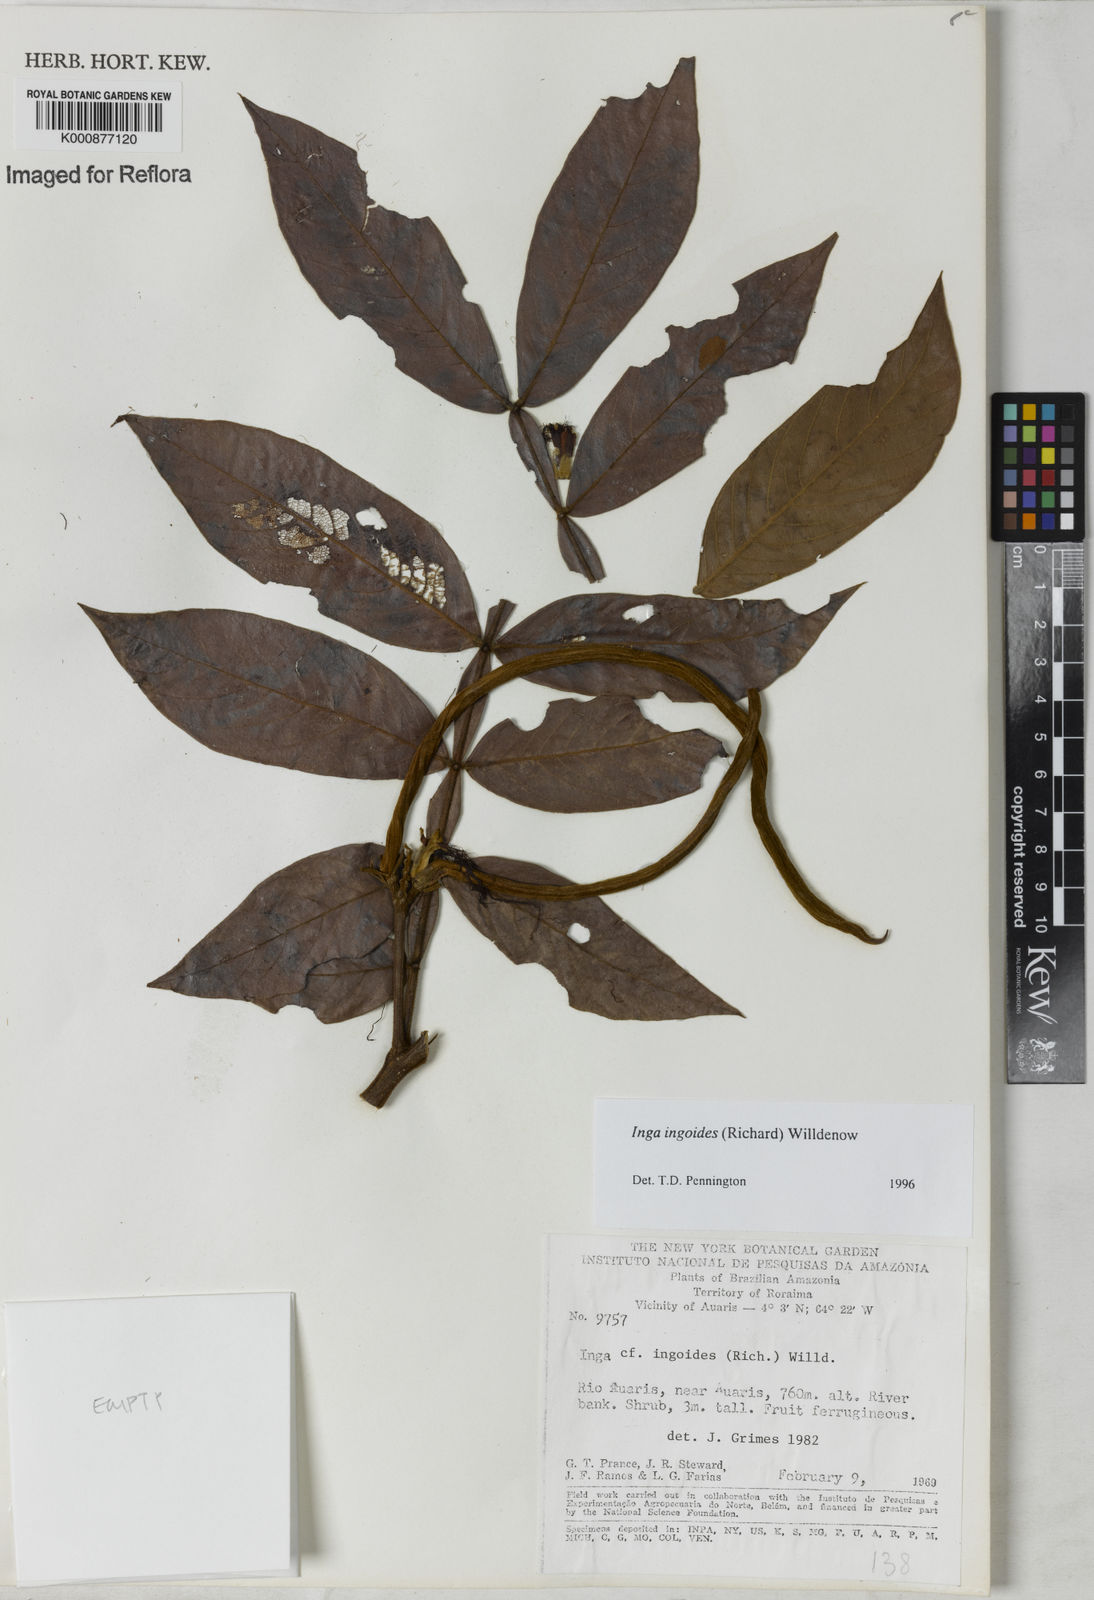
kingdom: Plantae
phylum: Tracheophyta
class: Magnoliopsida
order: Fabales
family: Fabaceae
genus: Inga
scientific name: Inga ingoides
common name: Spanish ash
